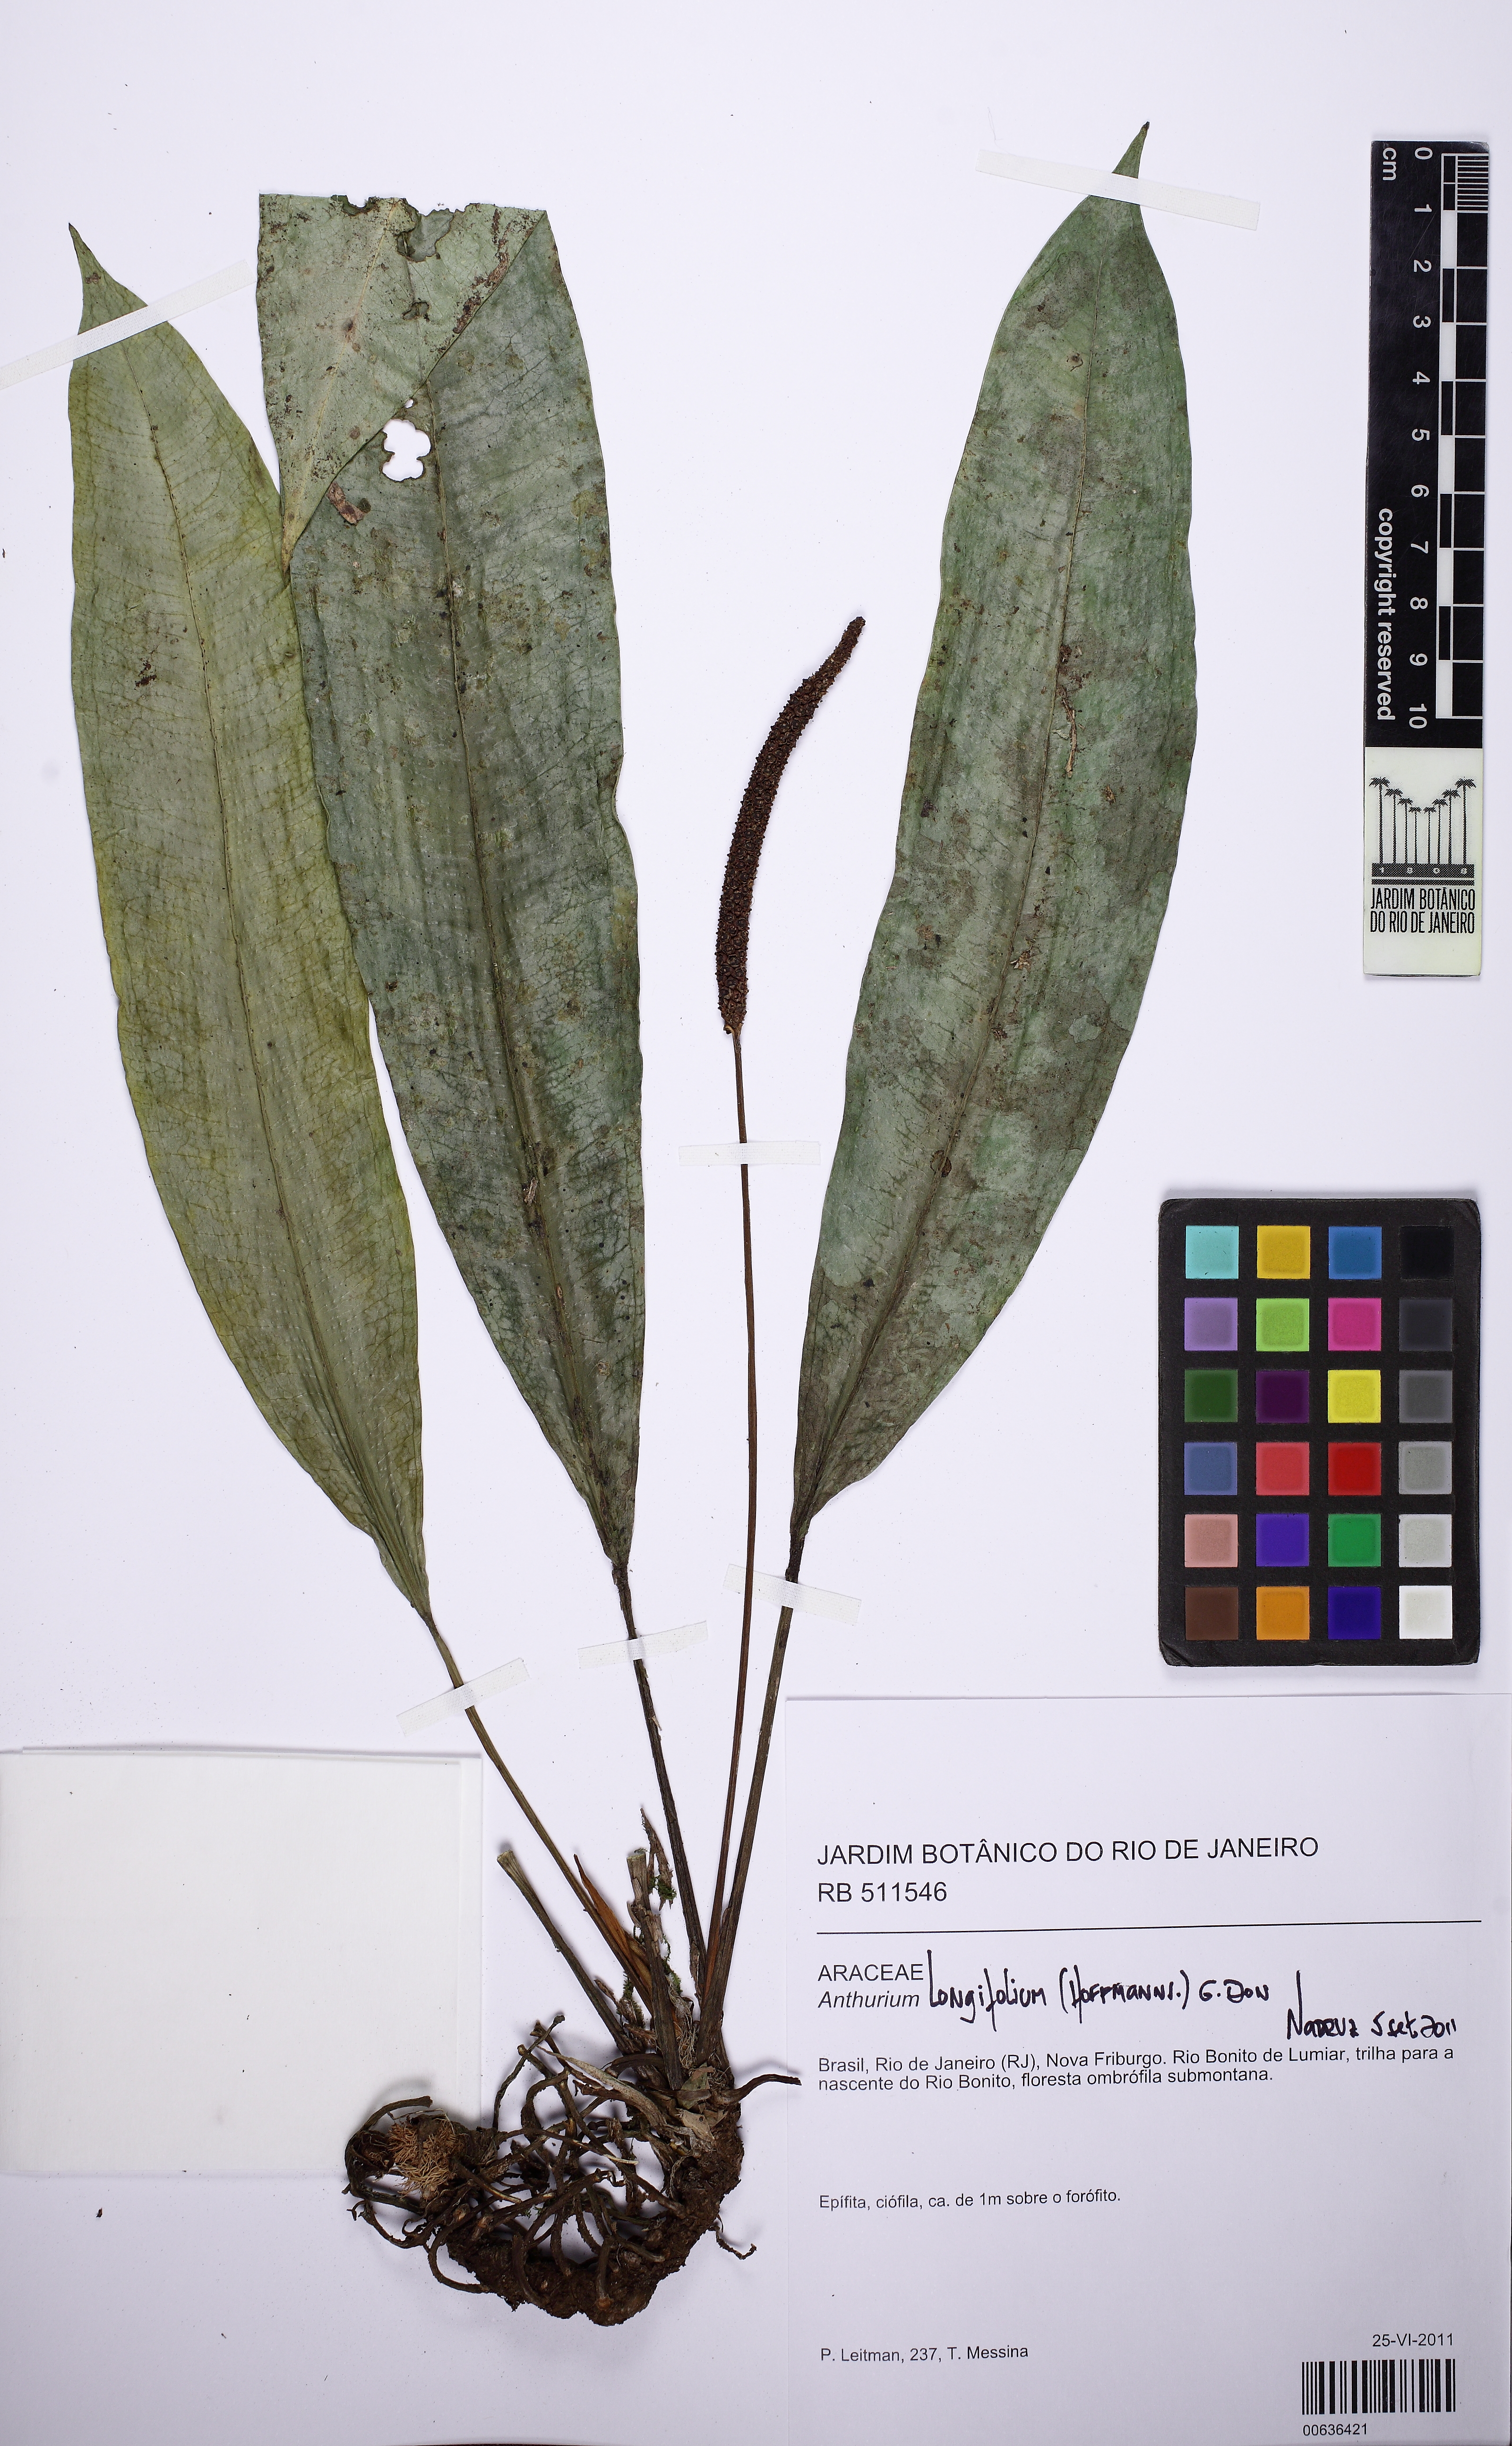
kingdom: Plantae
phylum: Tracheophyta
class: Liliopsida
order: Alismatales
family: Araceae
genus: Anthurium
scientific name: Anthurium
